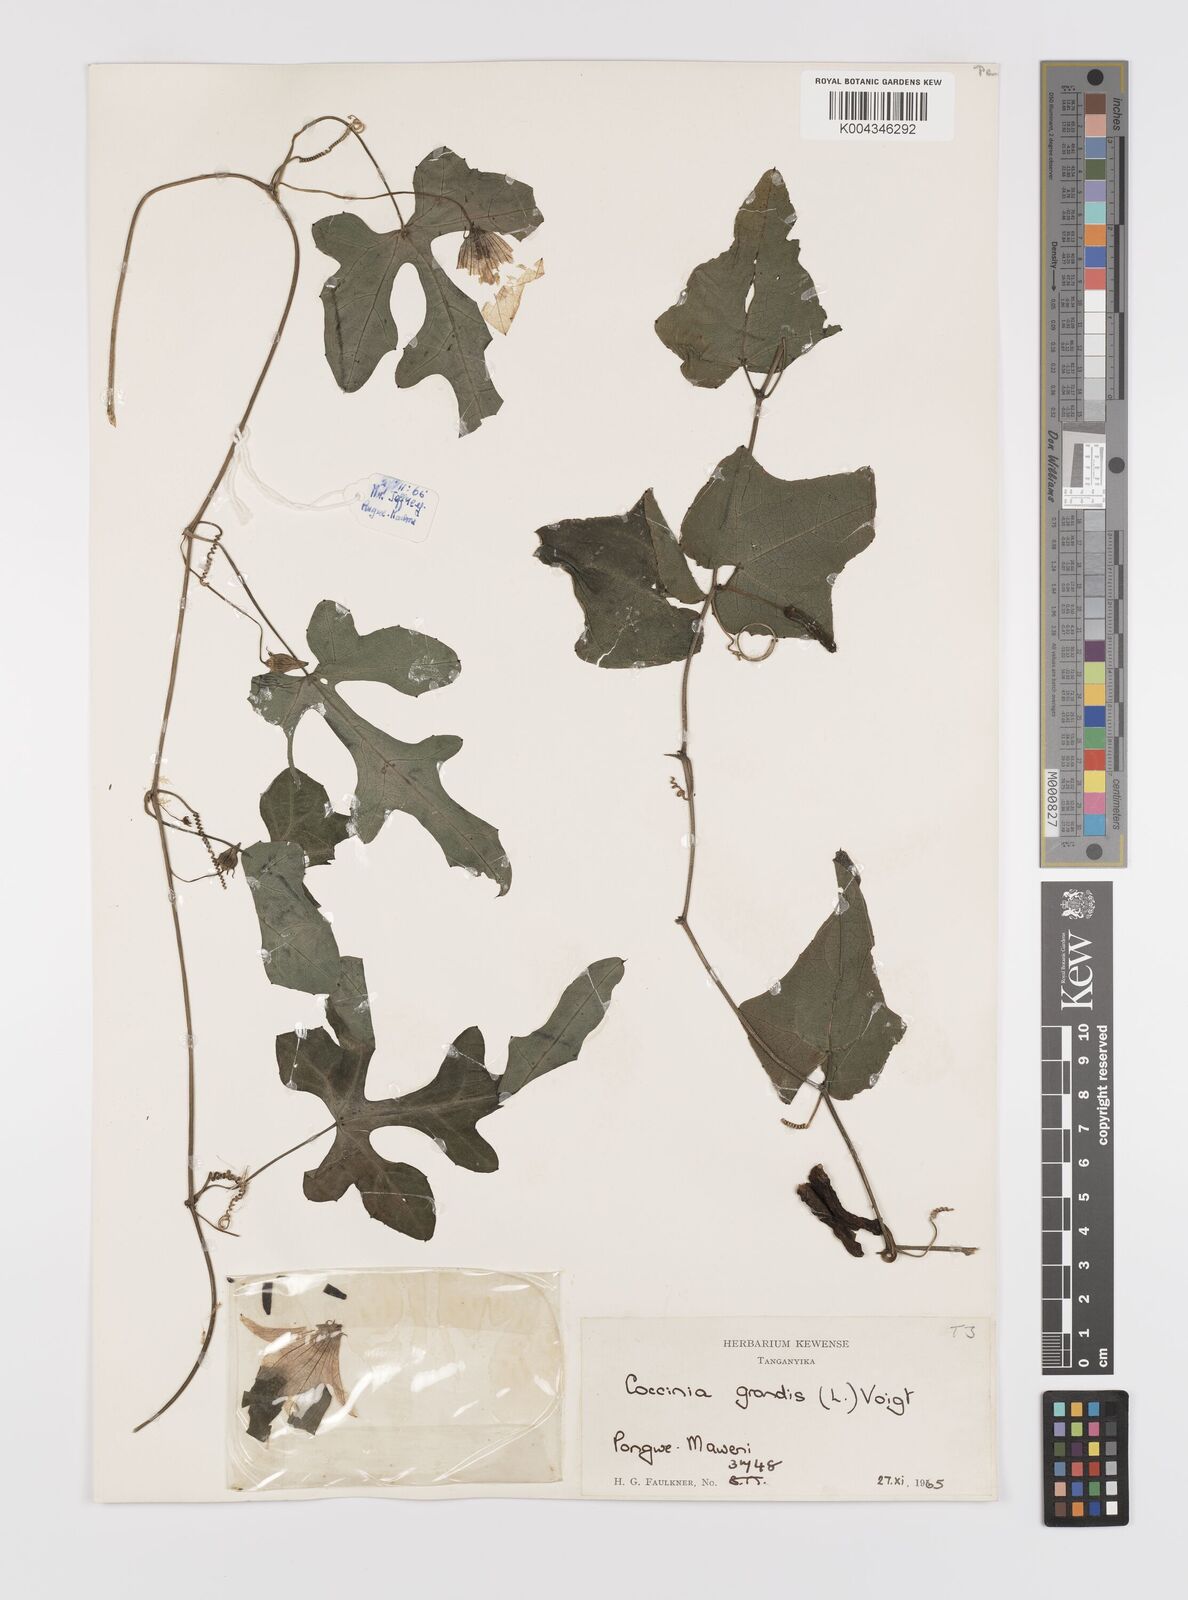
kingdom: Plantae
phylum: Tracheophyta
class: Magnoliopsida
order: Cucurbitales
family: Cucurbitaceae
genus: Coccinia
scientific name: Coccinia grandis
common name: Ivy gourd
